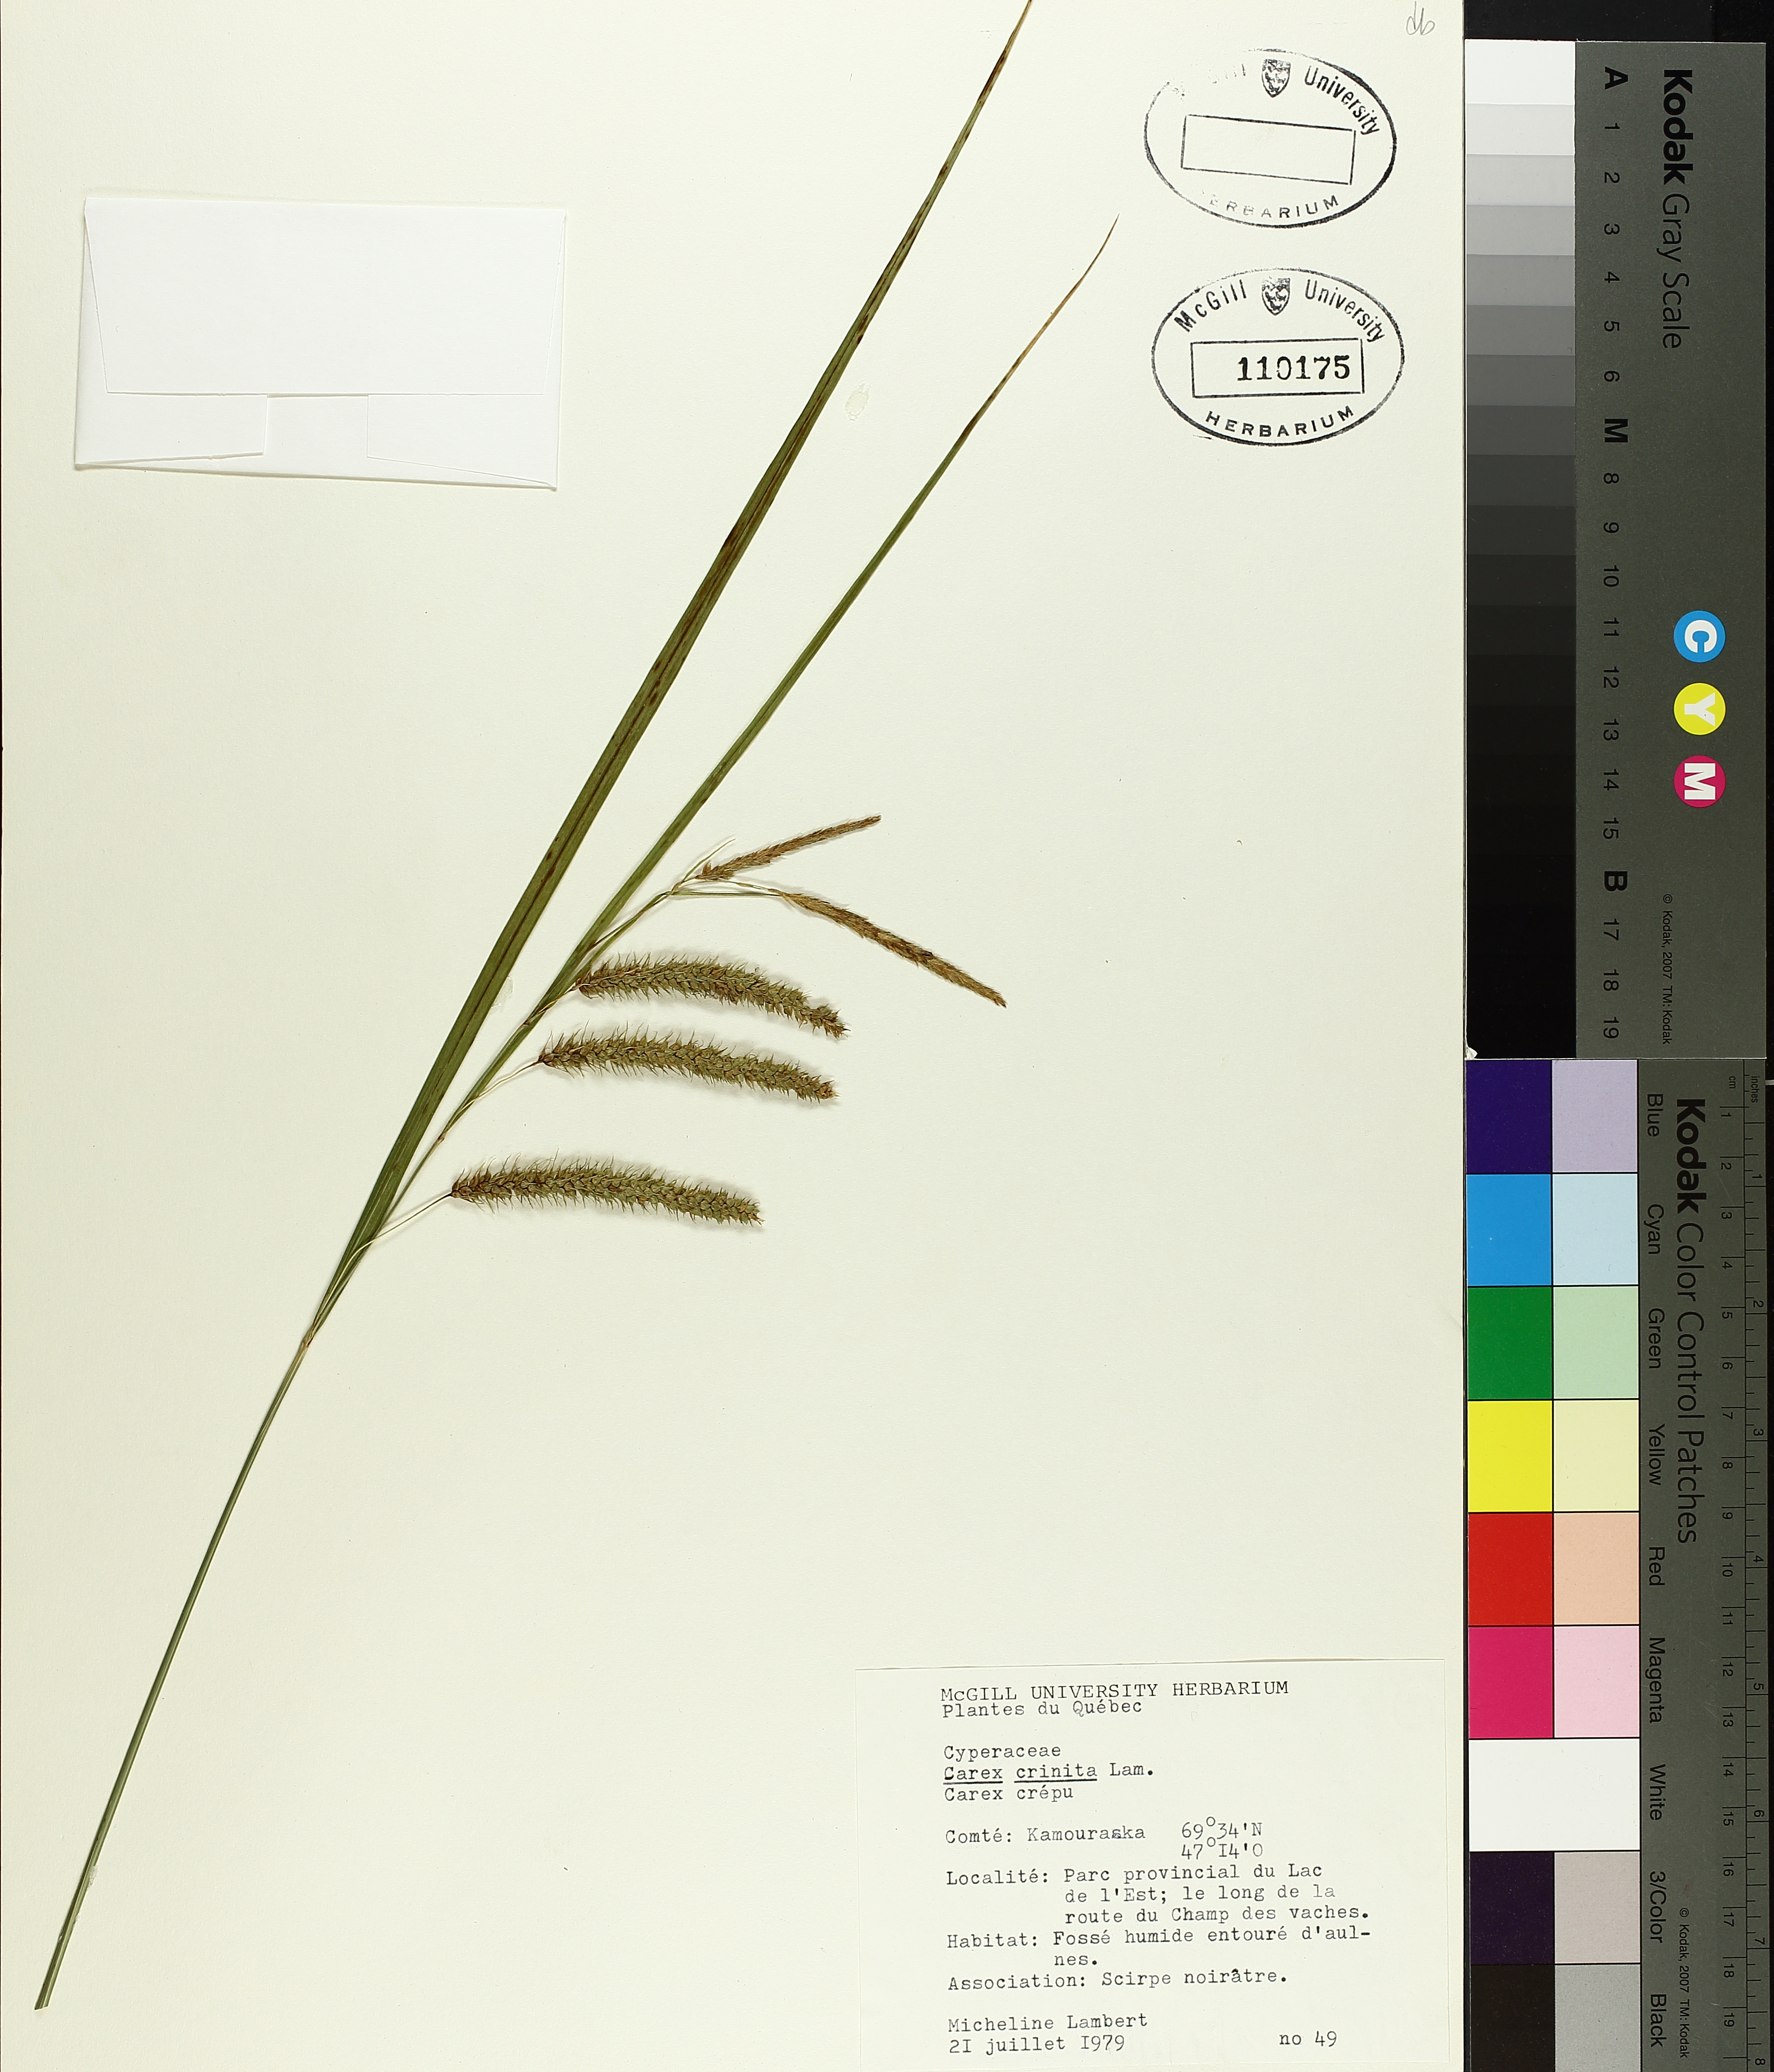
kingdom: Plantae
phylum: Tracheophyta
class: Liliopsida
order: Poales
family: Cyperaceae
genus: Carex
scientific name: Carex crinita
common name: Fringed sedge
